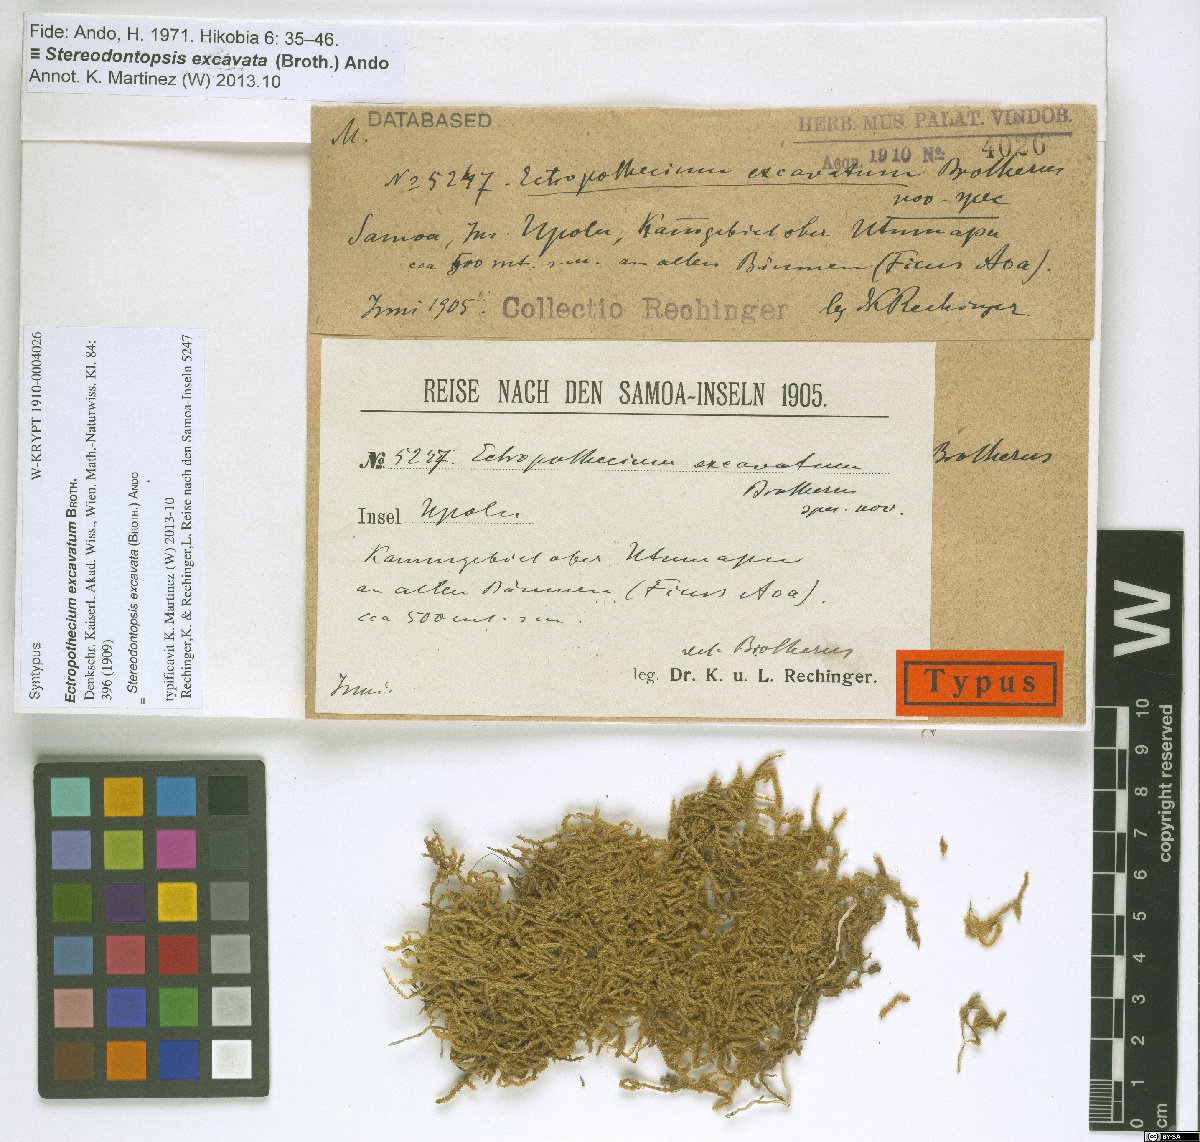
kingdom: Plantae
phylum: Bryophyta
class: Bryopsida
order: Hypnales
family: Hypnaceae
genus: Stereodontopsis
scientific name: Stereodontopsis excavata
